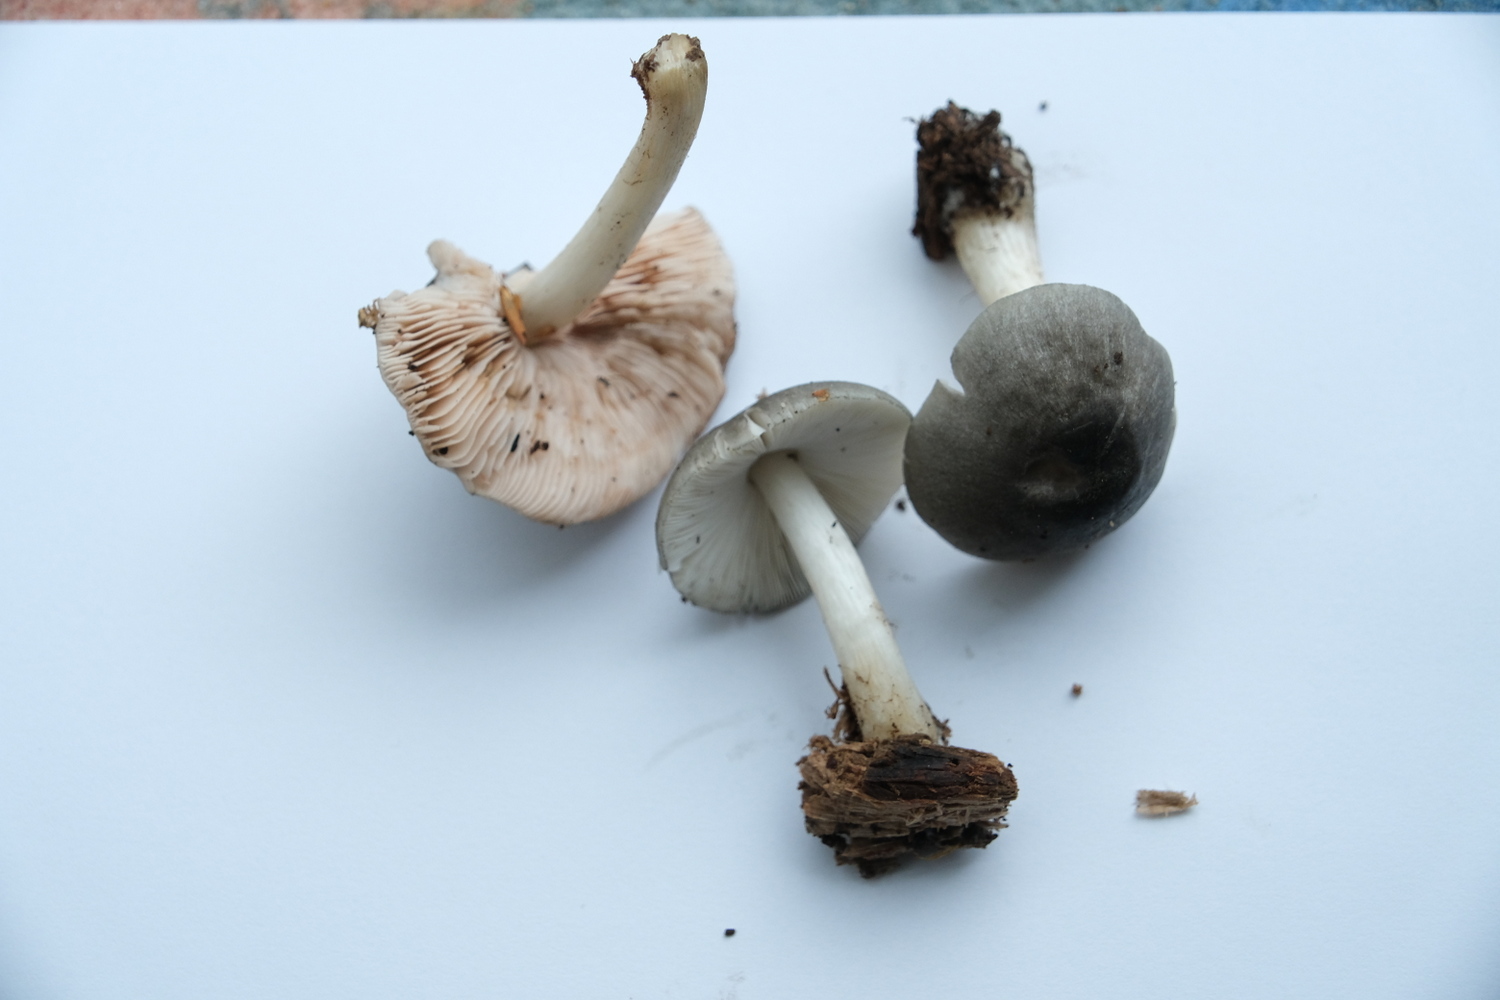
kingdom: Fungi
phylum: Basidiomycota
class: Agaricomycetes
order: Agaricales
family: Pluteaceae
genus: Pluteus
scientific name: Pluteus salicinus
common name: stiv skærmhat
